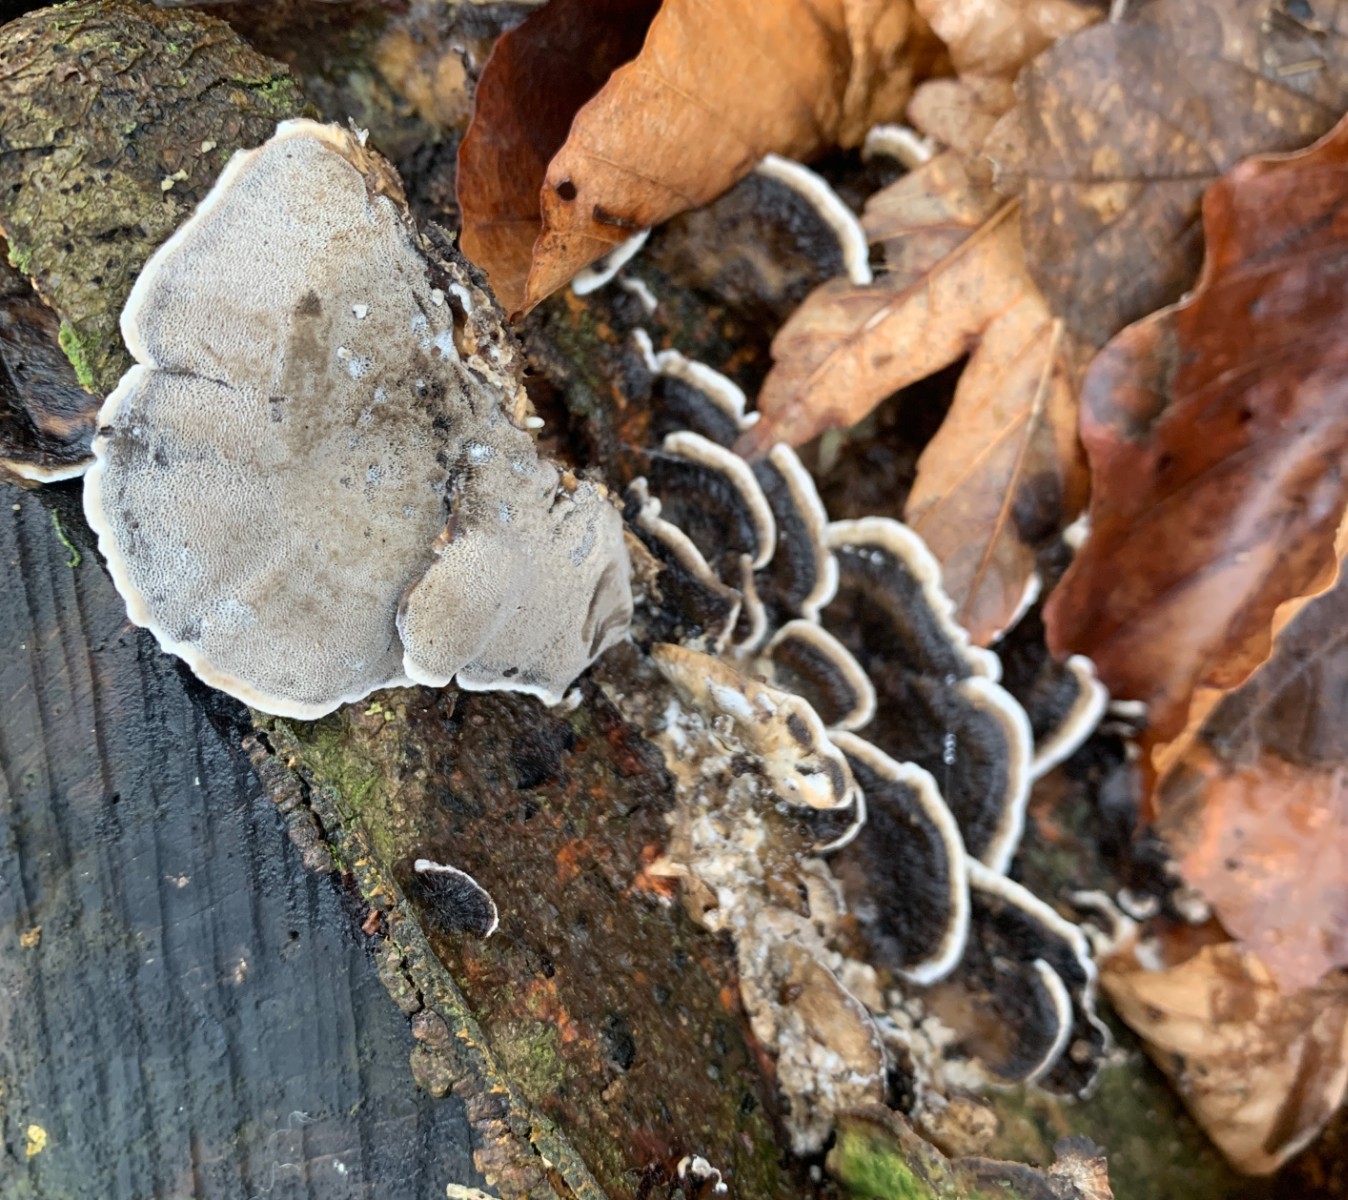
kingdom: Fungi
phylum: Basidiomycota
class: Agaricomycetes
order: Polyporales
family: Phanerochaetaceae
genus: Bjerkandera
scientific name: Bjerkandera adusta
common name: sveden sodporesvamp
